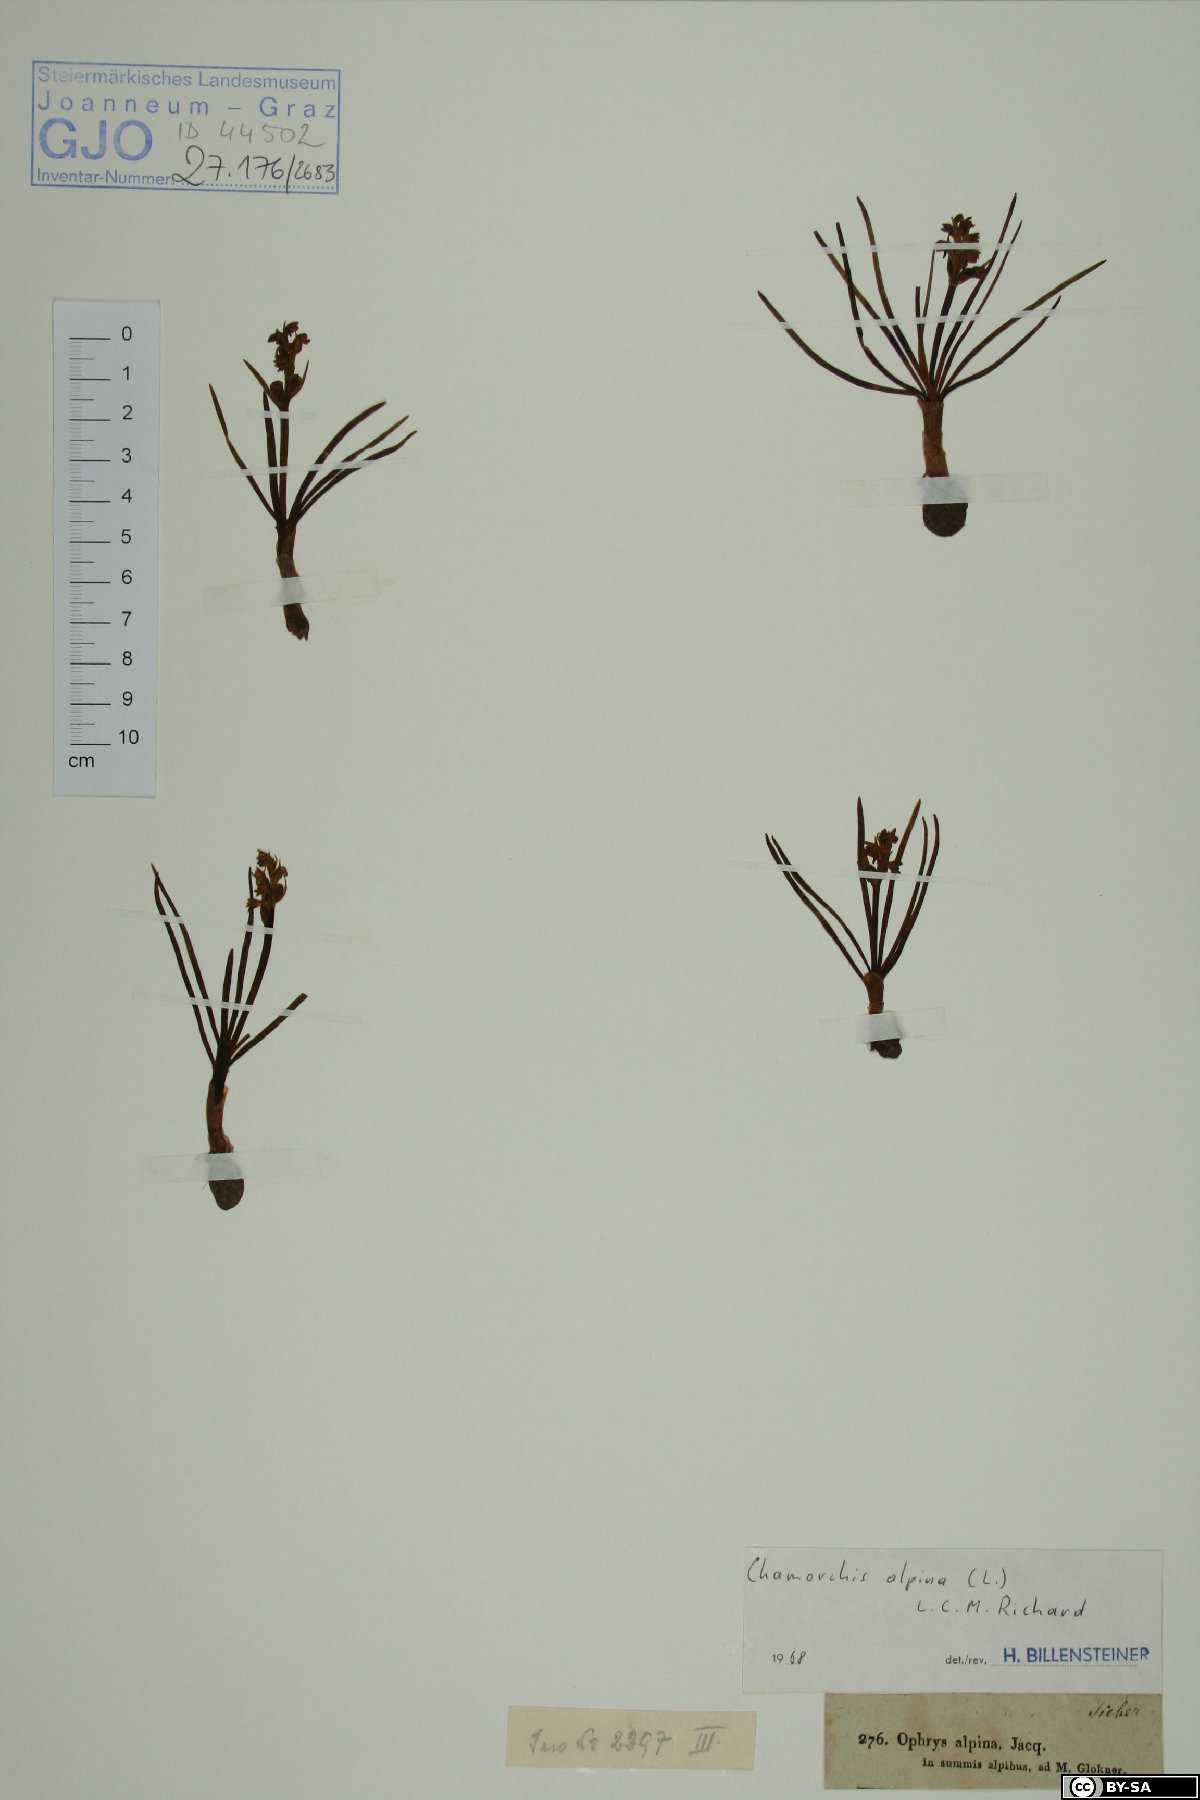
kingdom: Plantae
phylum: Tracheophyta
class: Liliopsida
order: Asparagales
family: Orchidaceae
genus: Chamorchis
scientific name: Chamorchis alpina
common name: Alpine chamorchis
